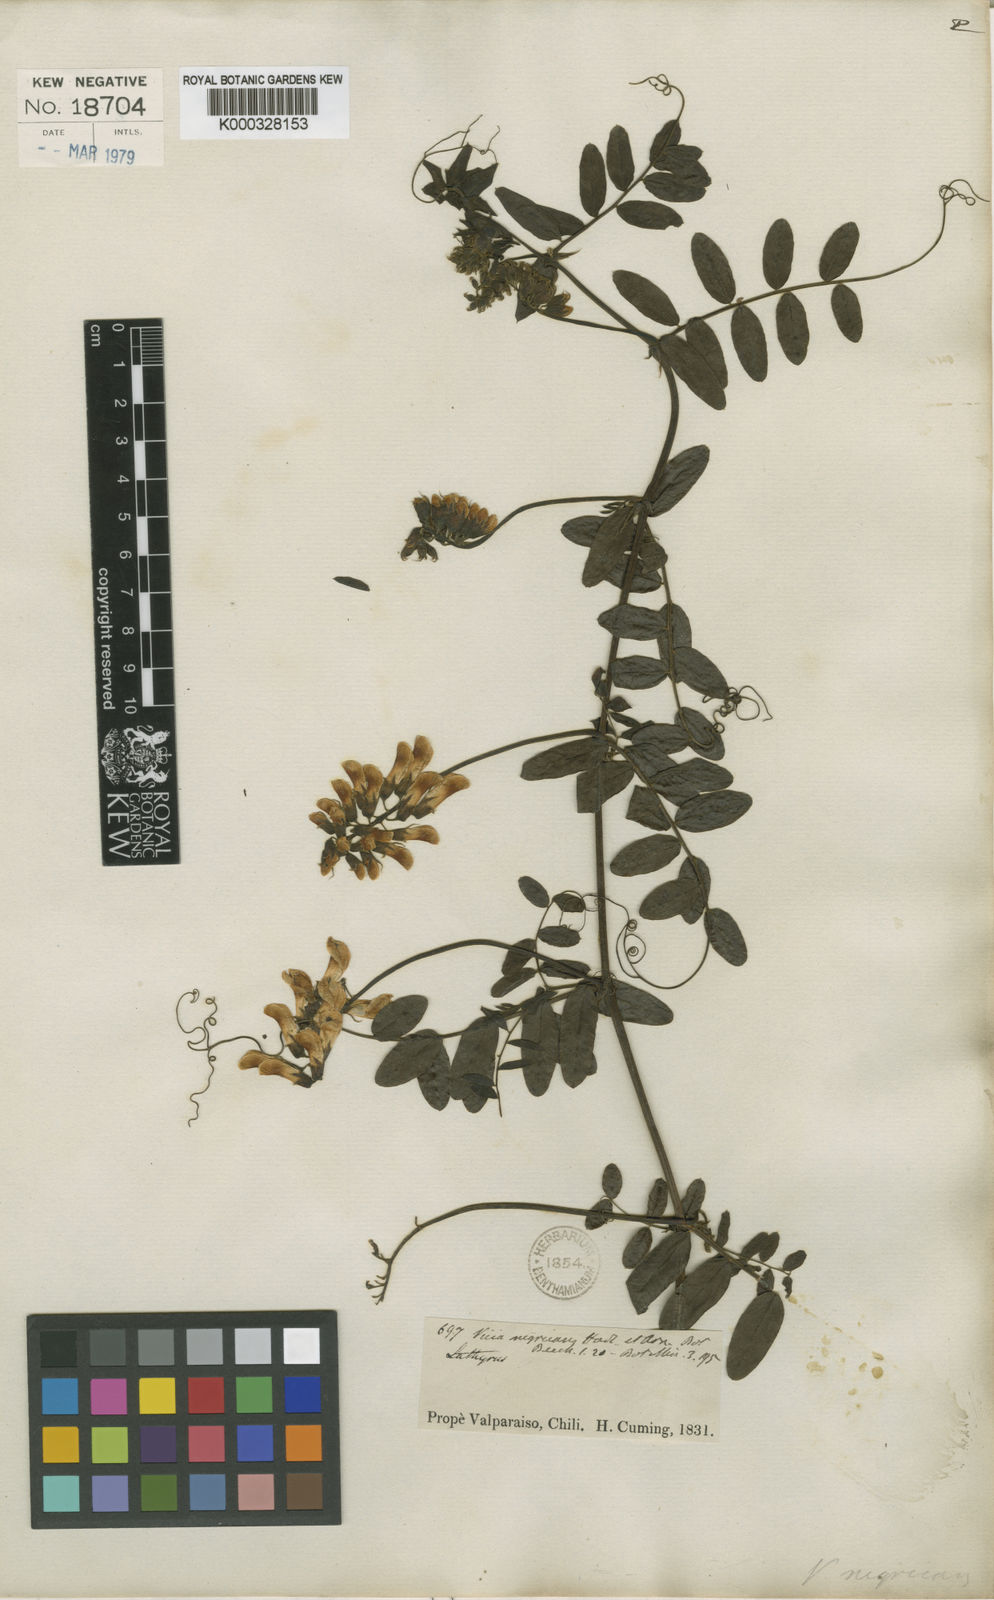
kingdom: Plantae
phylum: Tracheophyta
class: Magnoliopsida
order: Fabales
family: Fabaceae
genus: Vicia
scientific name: Vicia nigricans
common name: Black vetch
